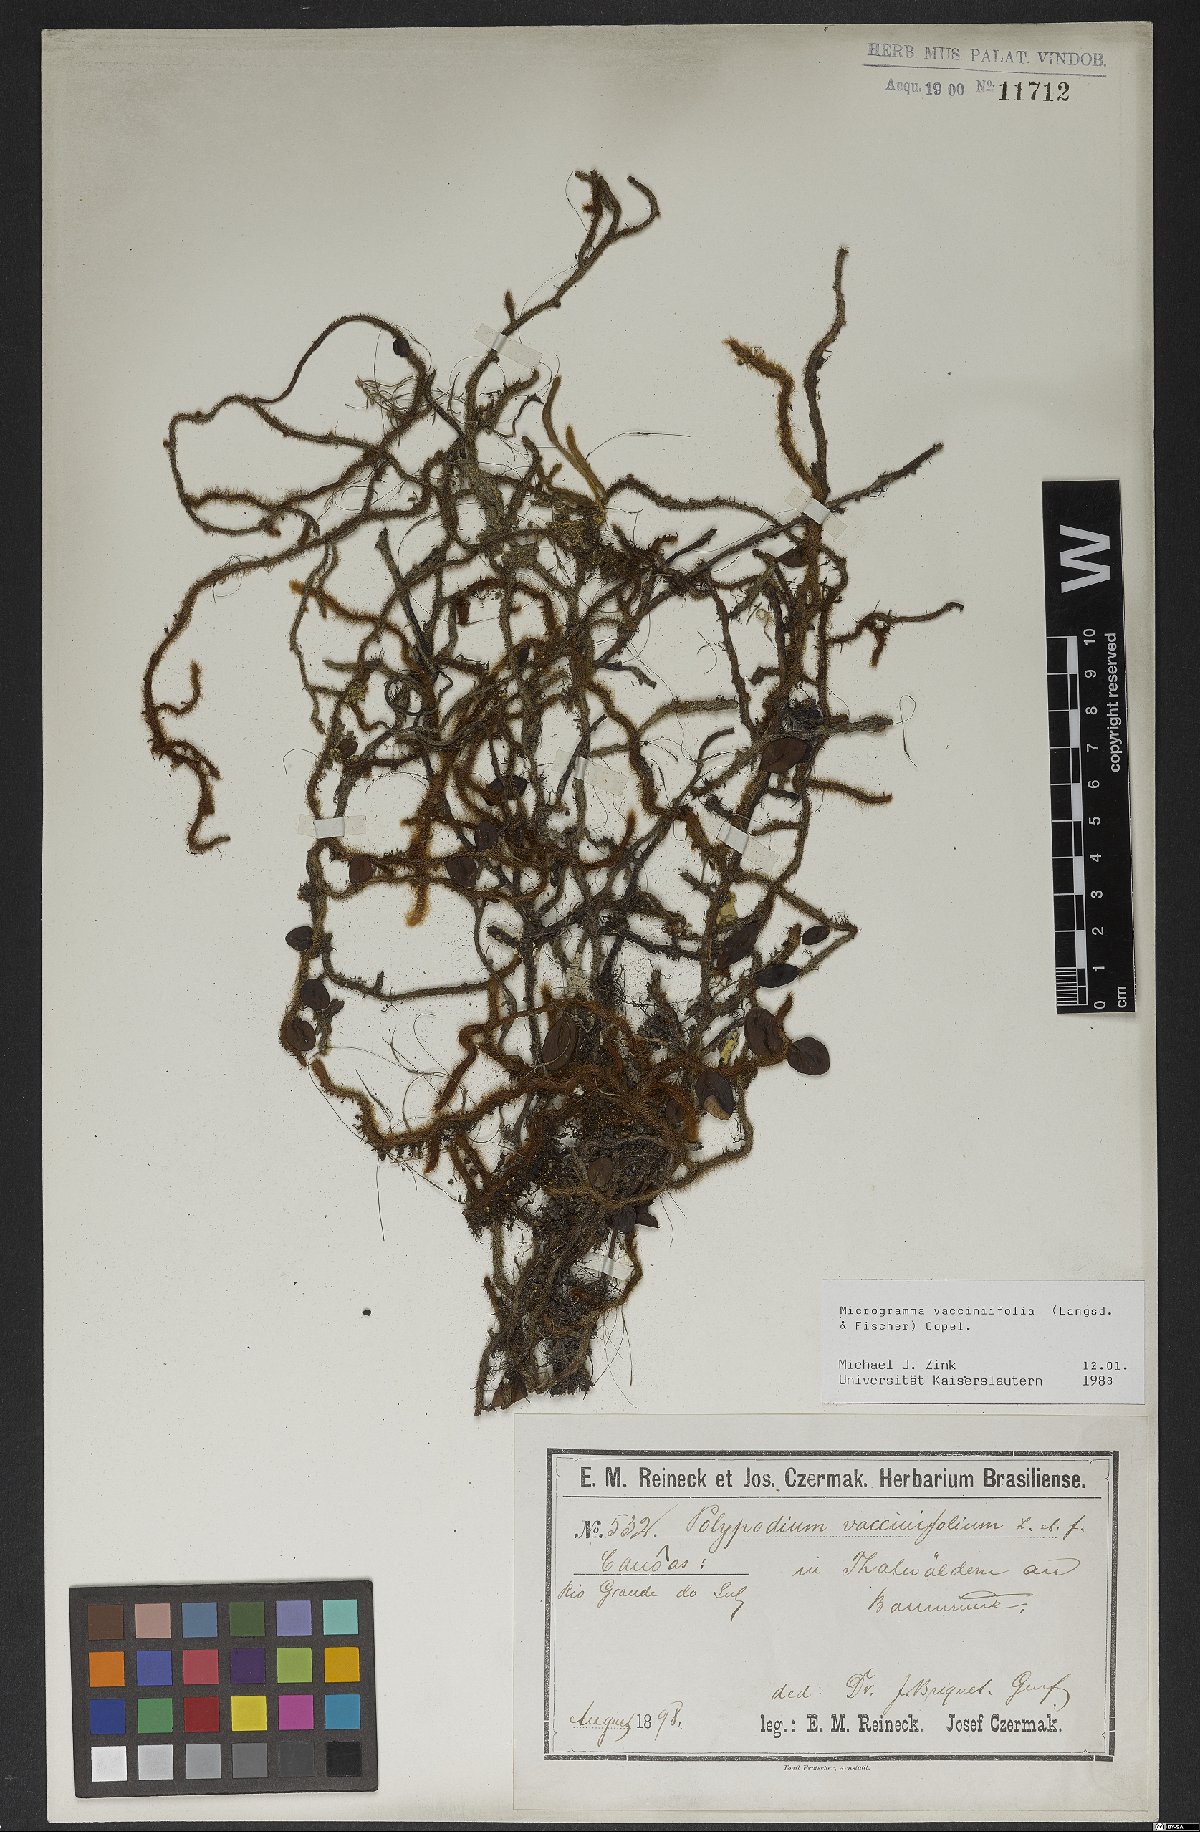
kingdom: Plantae
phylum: Tracheophyta
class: Polypodiopsida
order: Polypodiales
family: Polypodiaceae
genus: Microgramma
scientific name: Microgramma vaccinifolia
